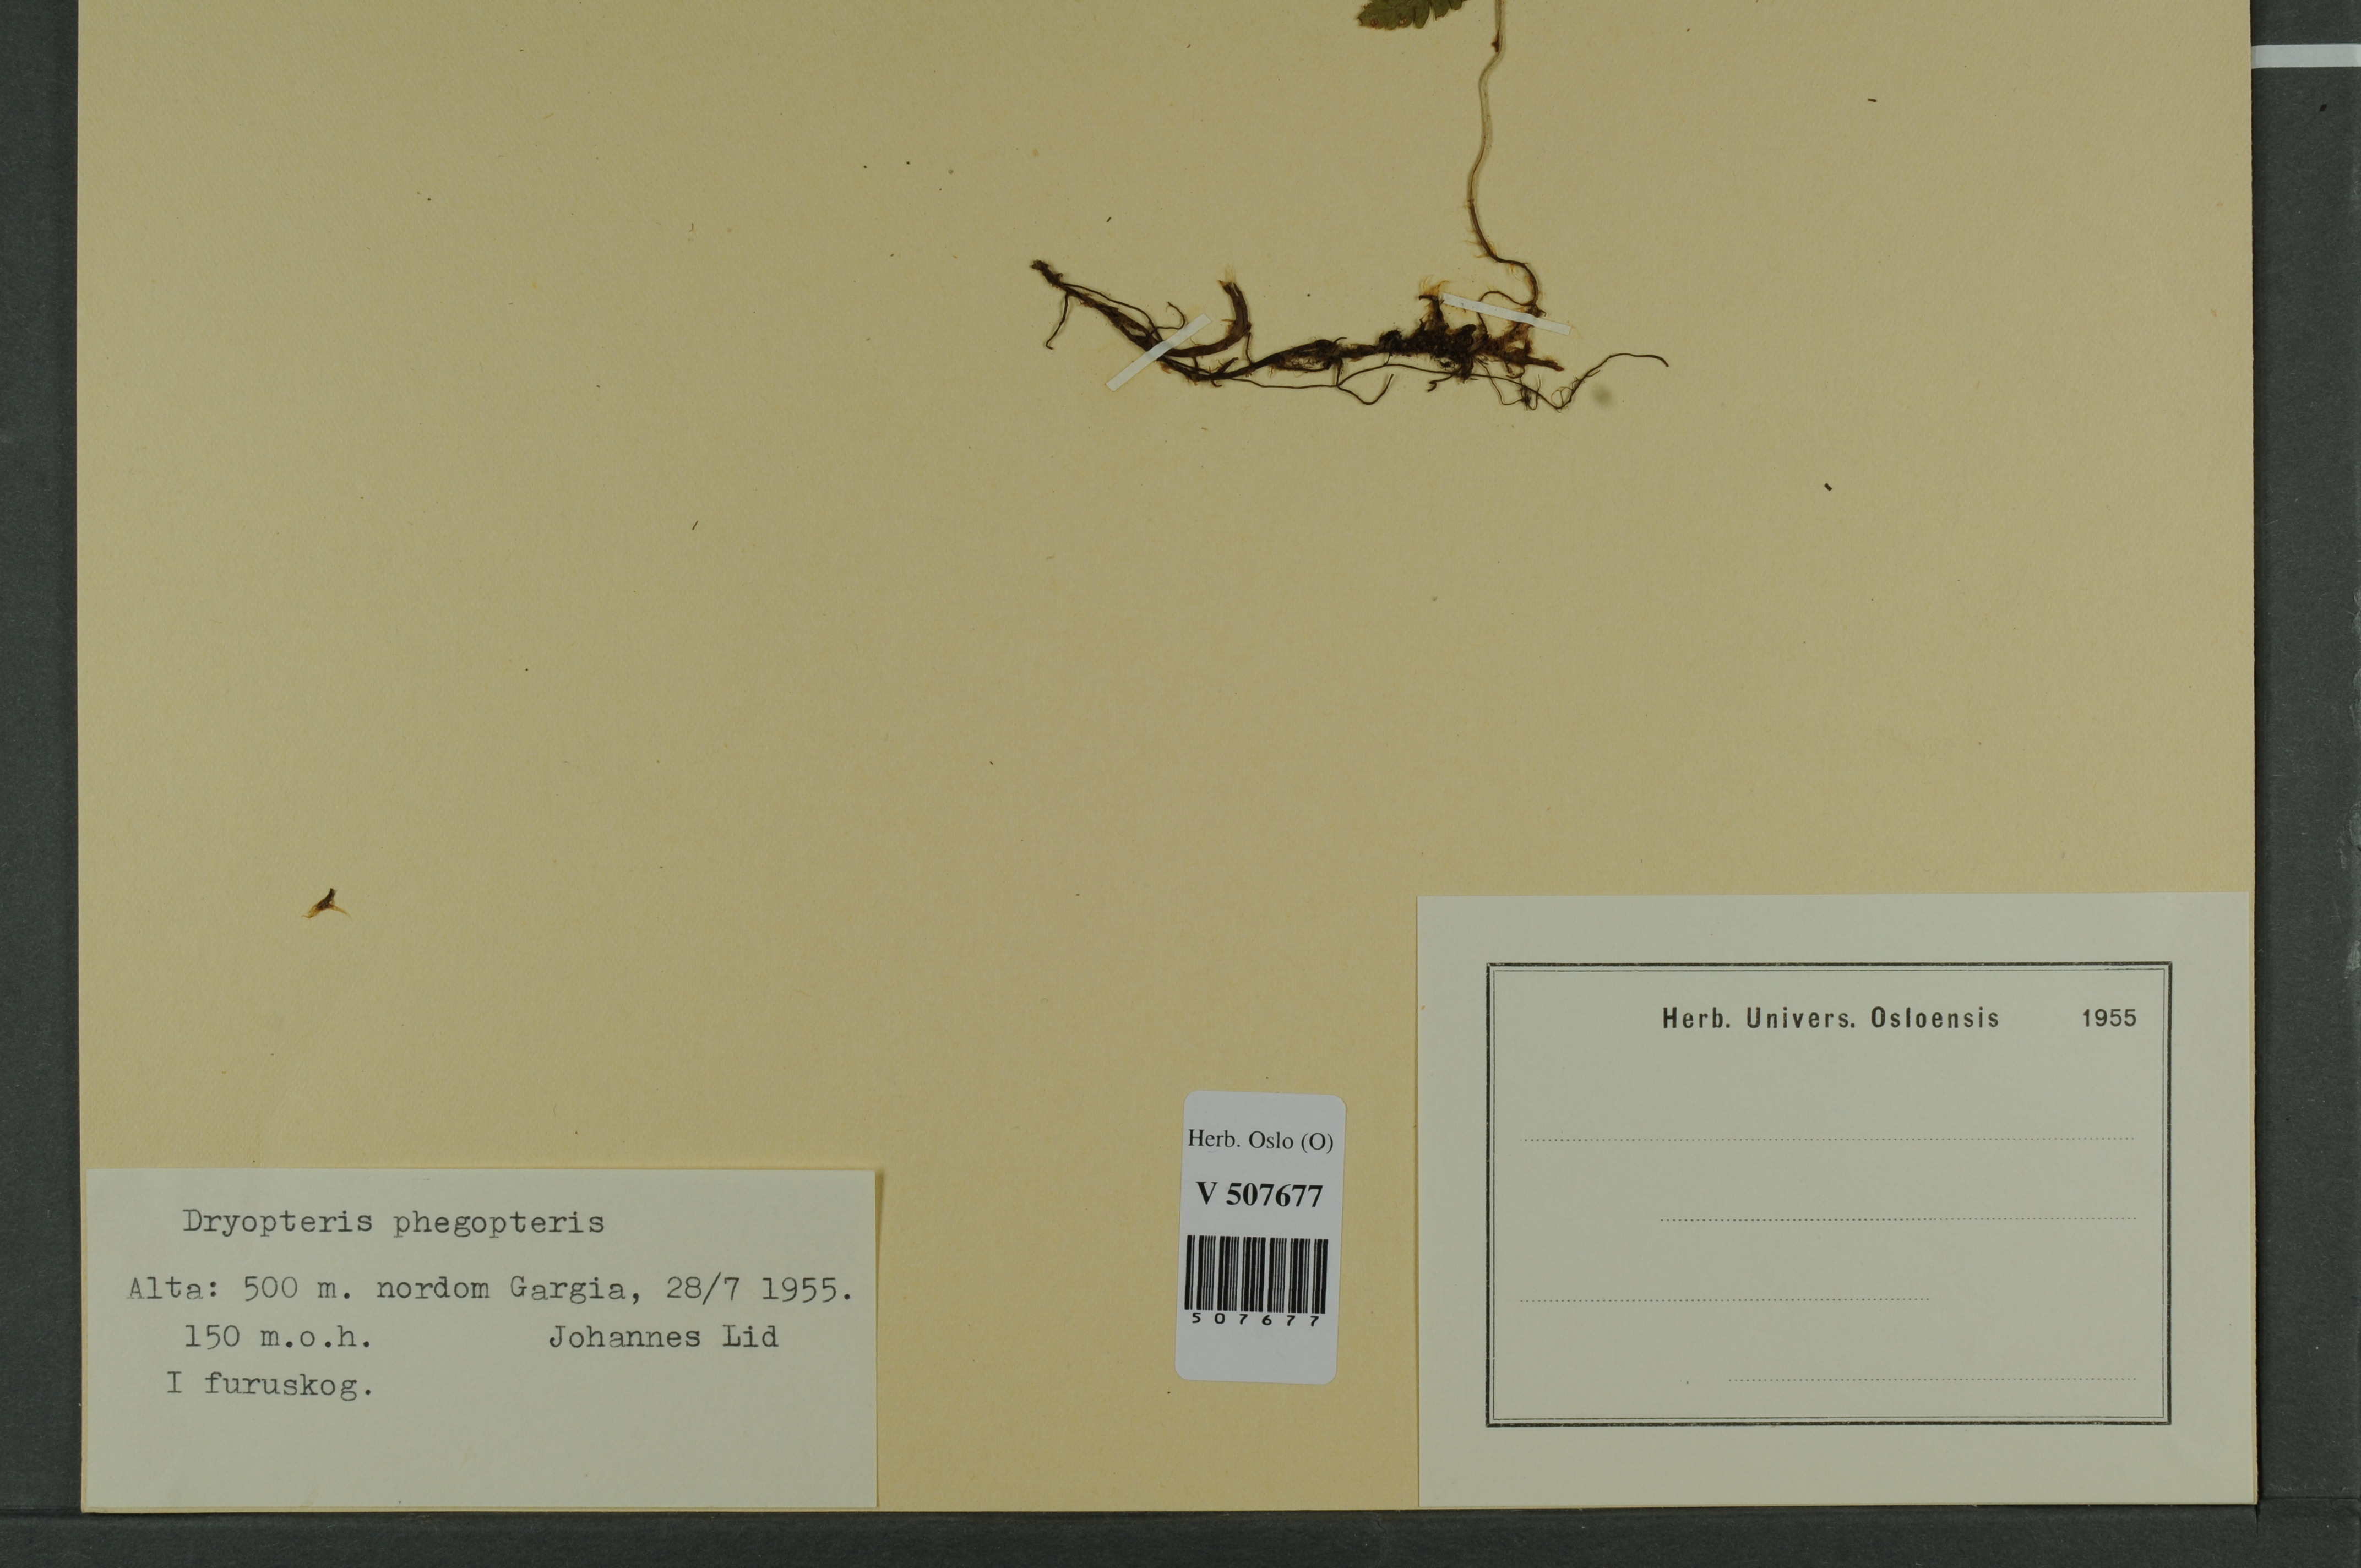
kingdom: Plantae
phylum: Tracheophyta
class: Polypodiopsida
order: Polypodiales
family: Thelypteridaceae
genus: Phegopteris
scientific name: Phegopteris connectilis
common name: Beech fern
